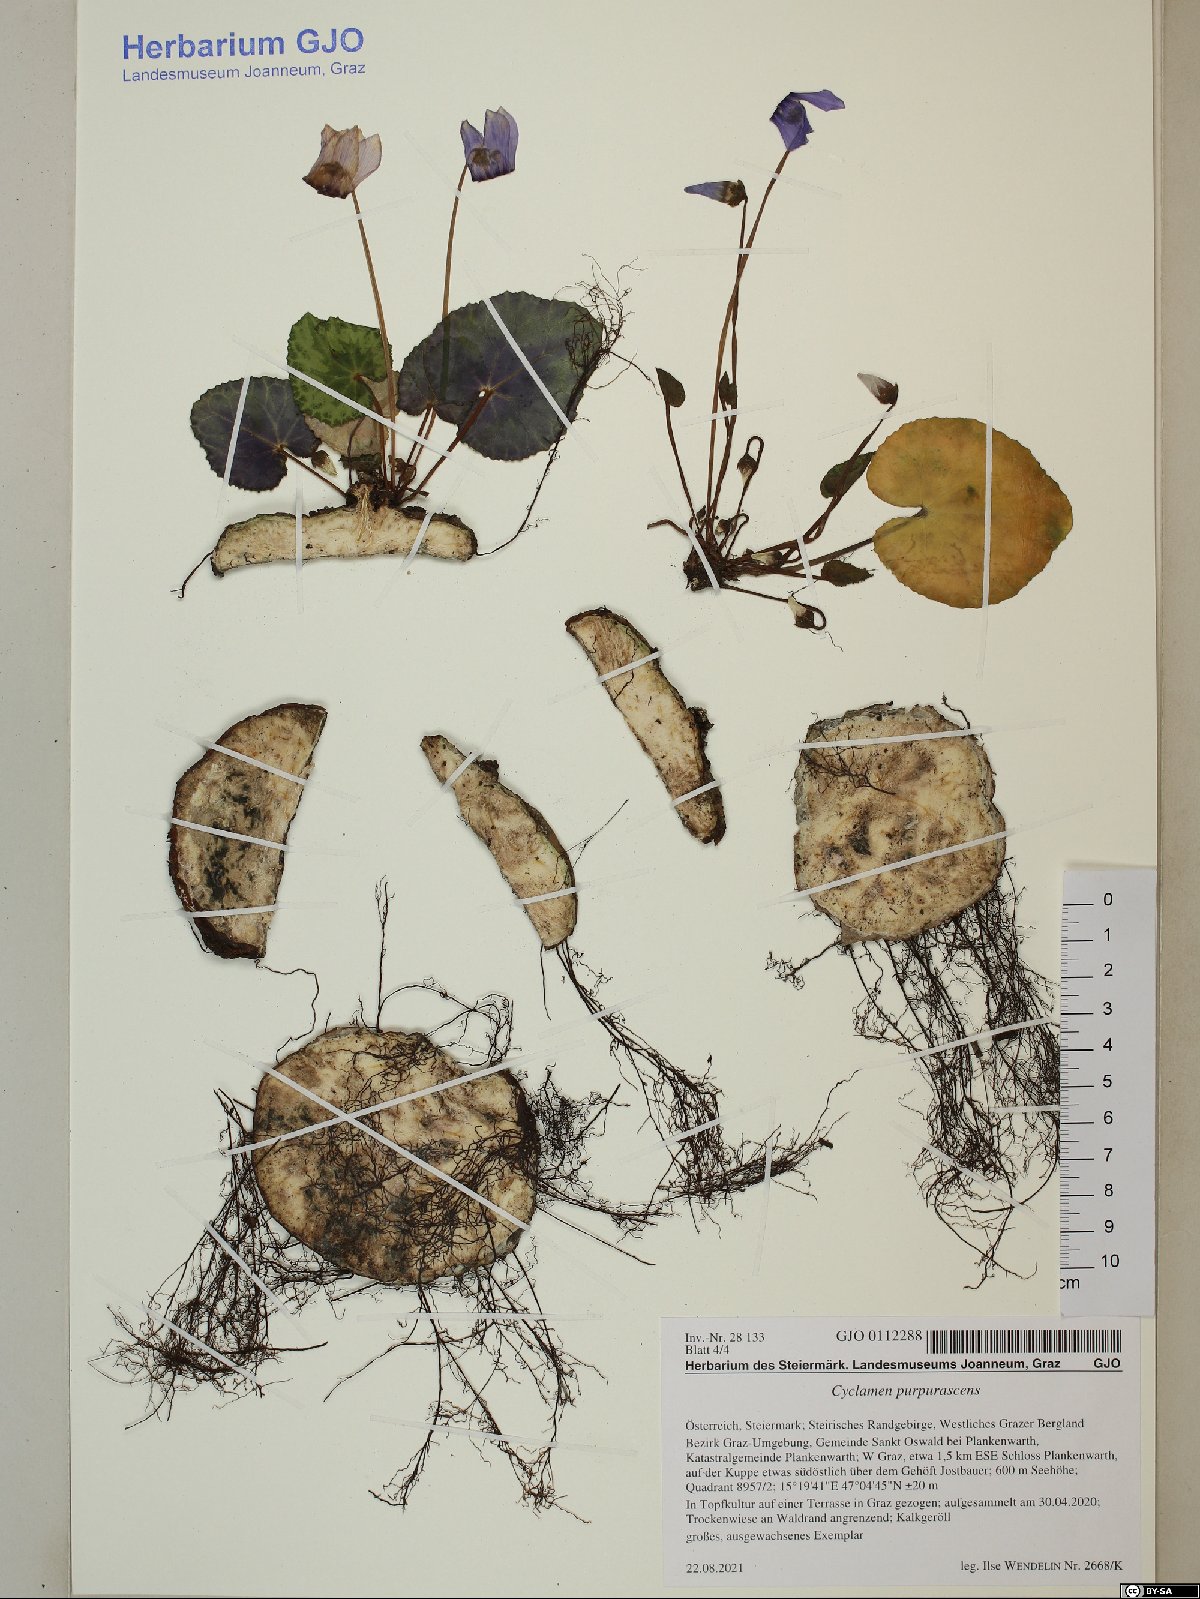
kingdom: Plantae
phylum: Tracheophyta
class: Magnoliopsida
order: Ericales
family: Primulaceae
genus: Cyclamen
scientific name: Cyclamen purpurascens
